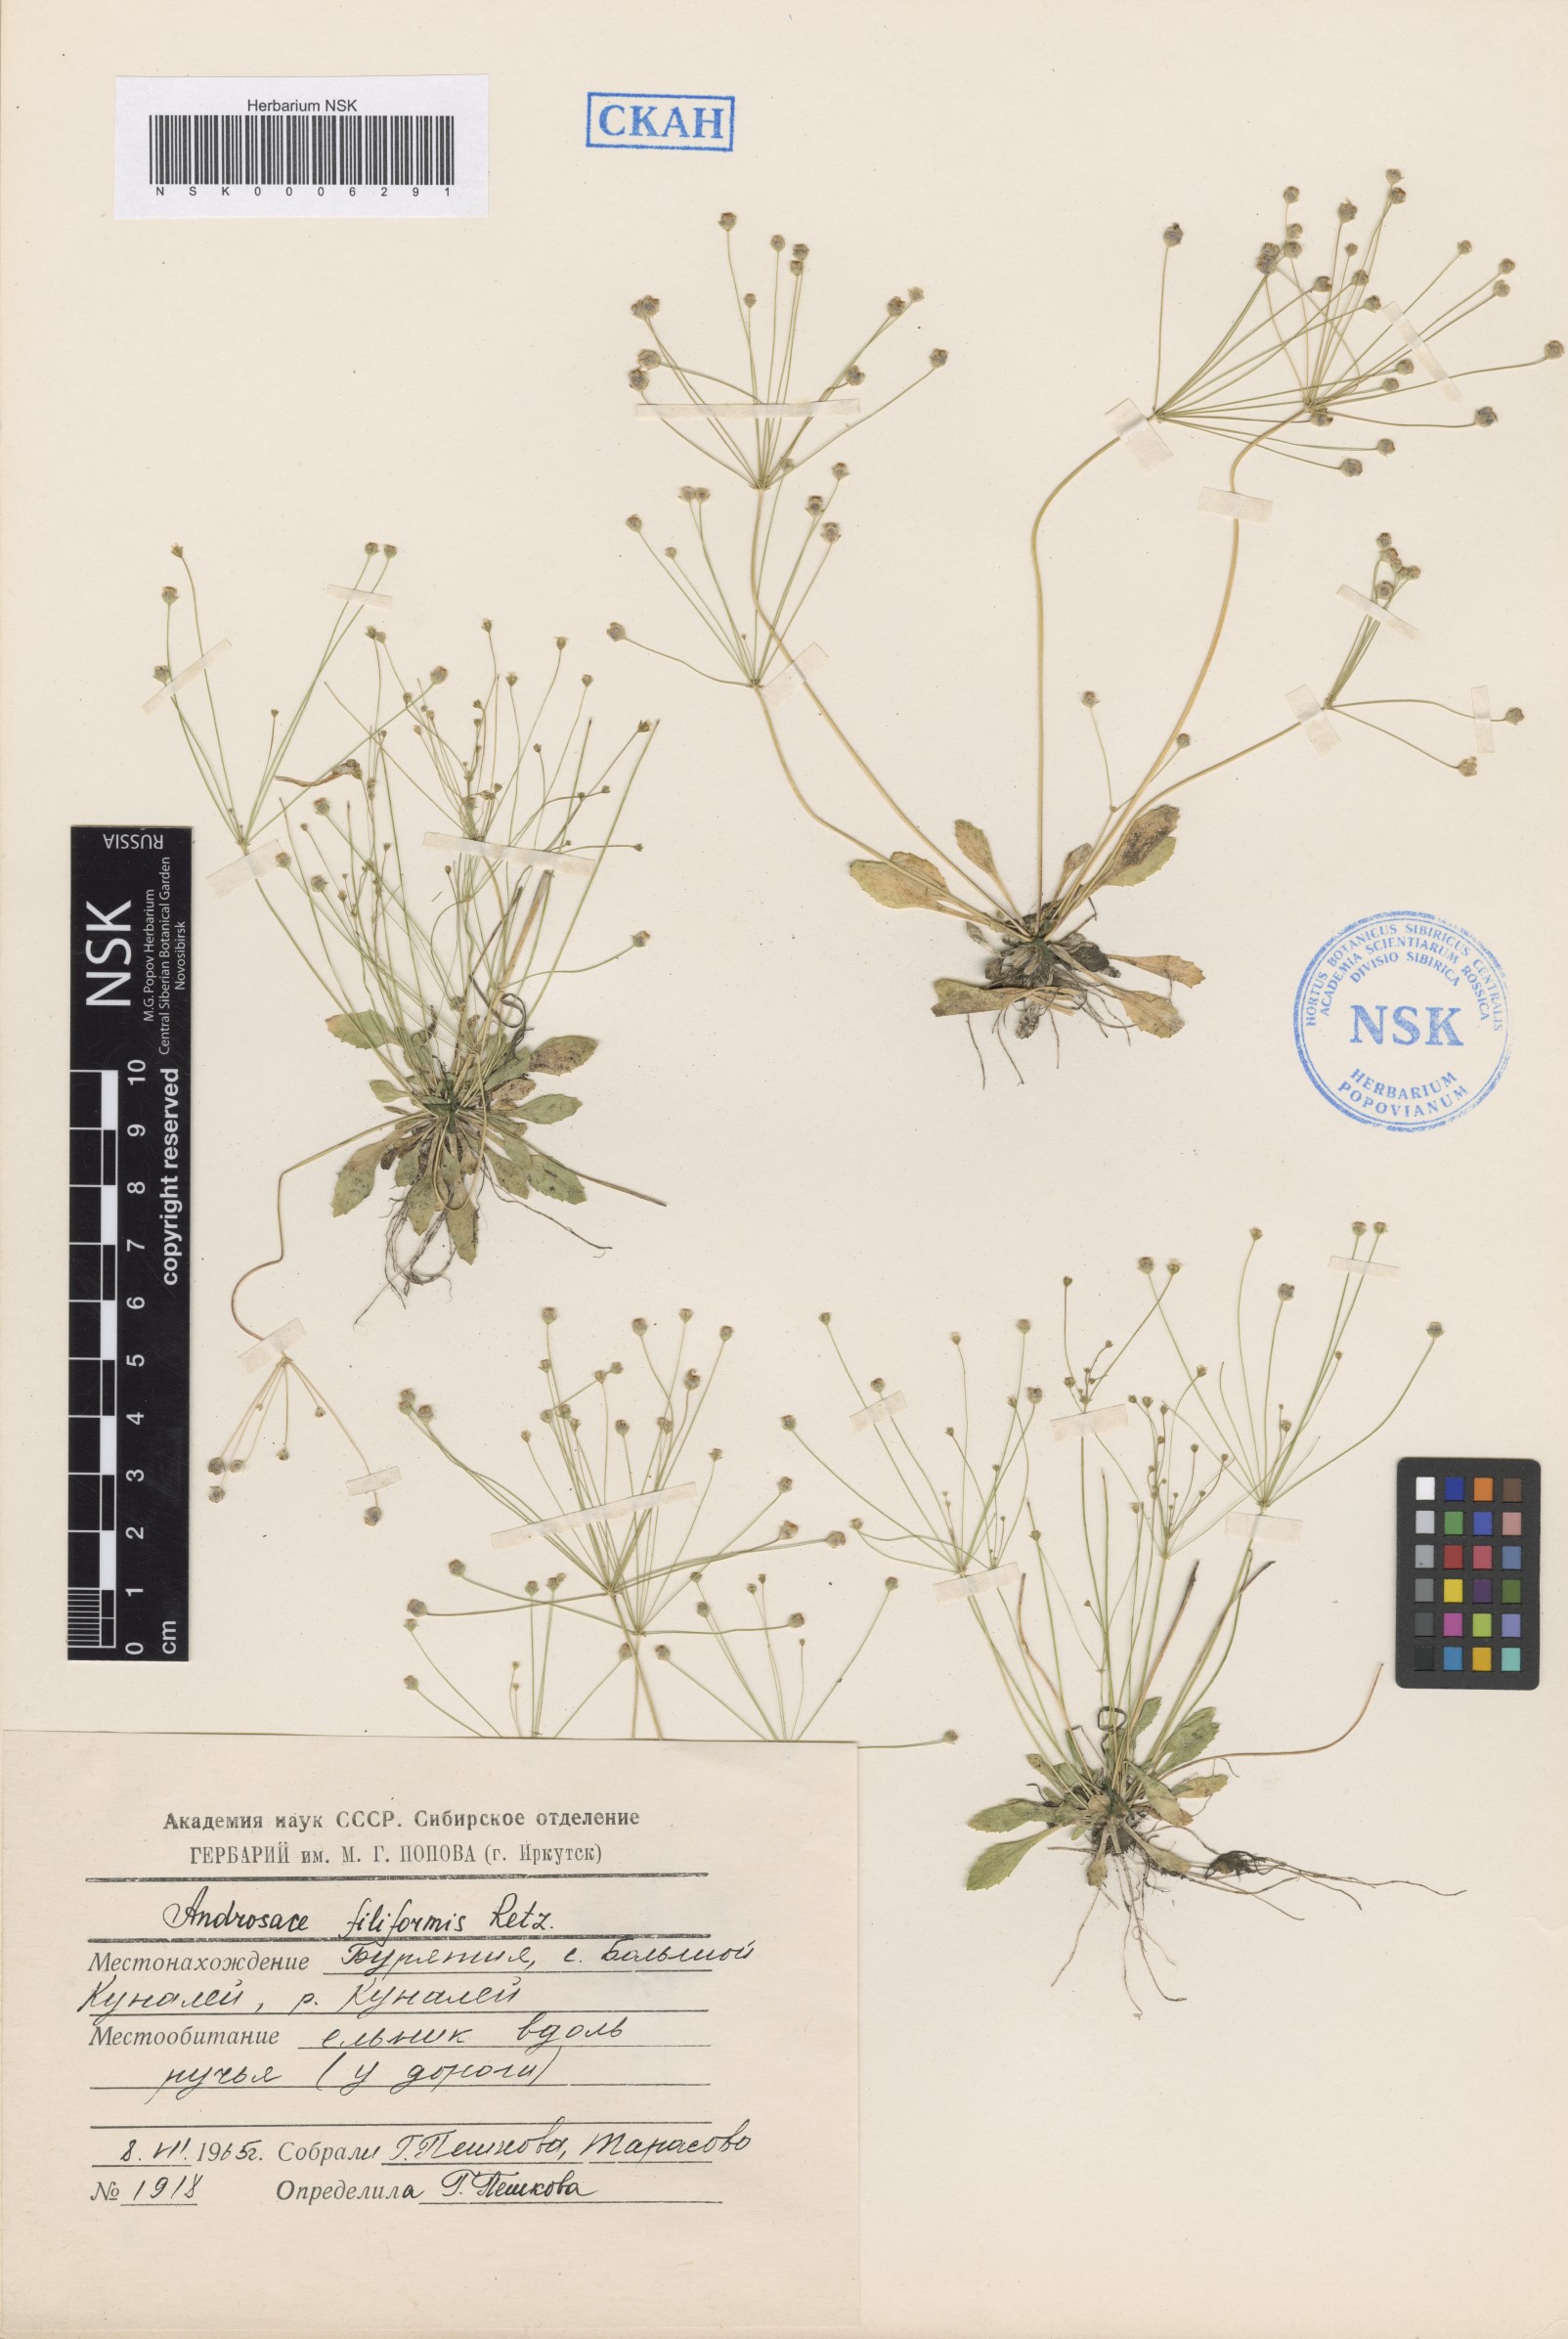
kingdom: Plantae
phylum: Tracheophyta
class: Magnoliopsida
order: Ericales
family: Primulaceae
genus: Androsace
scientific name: Androsace filiformis
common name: Filiform rock jasmine
